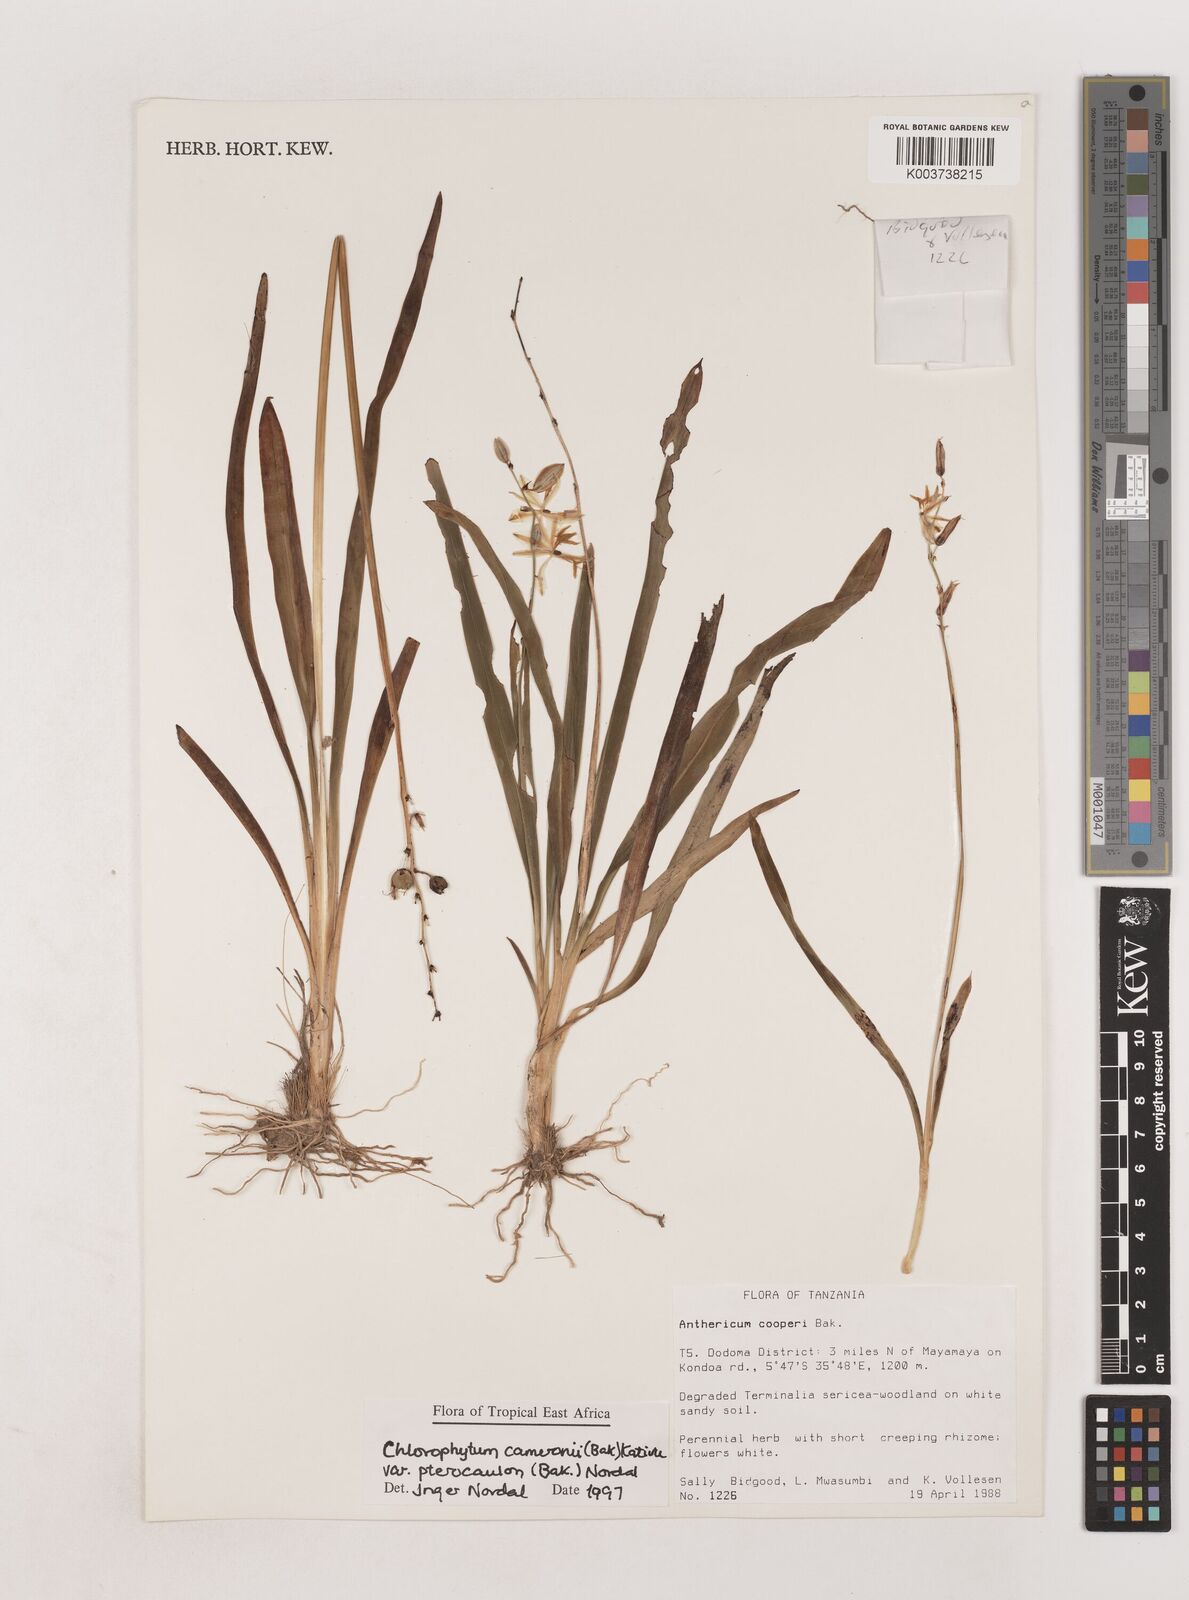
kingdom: Plantae
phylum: Tracheophyta
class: Liliopsida
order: Asparagales
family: Asparagaceae
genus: Chlorophytum
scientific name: Chlorophytum cameronii
